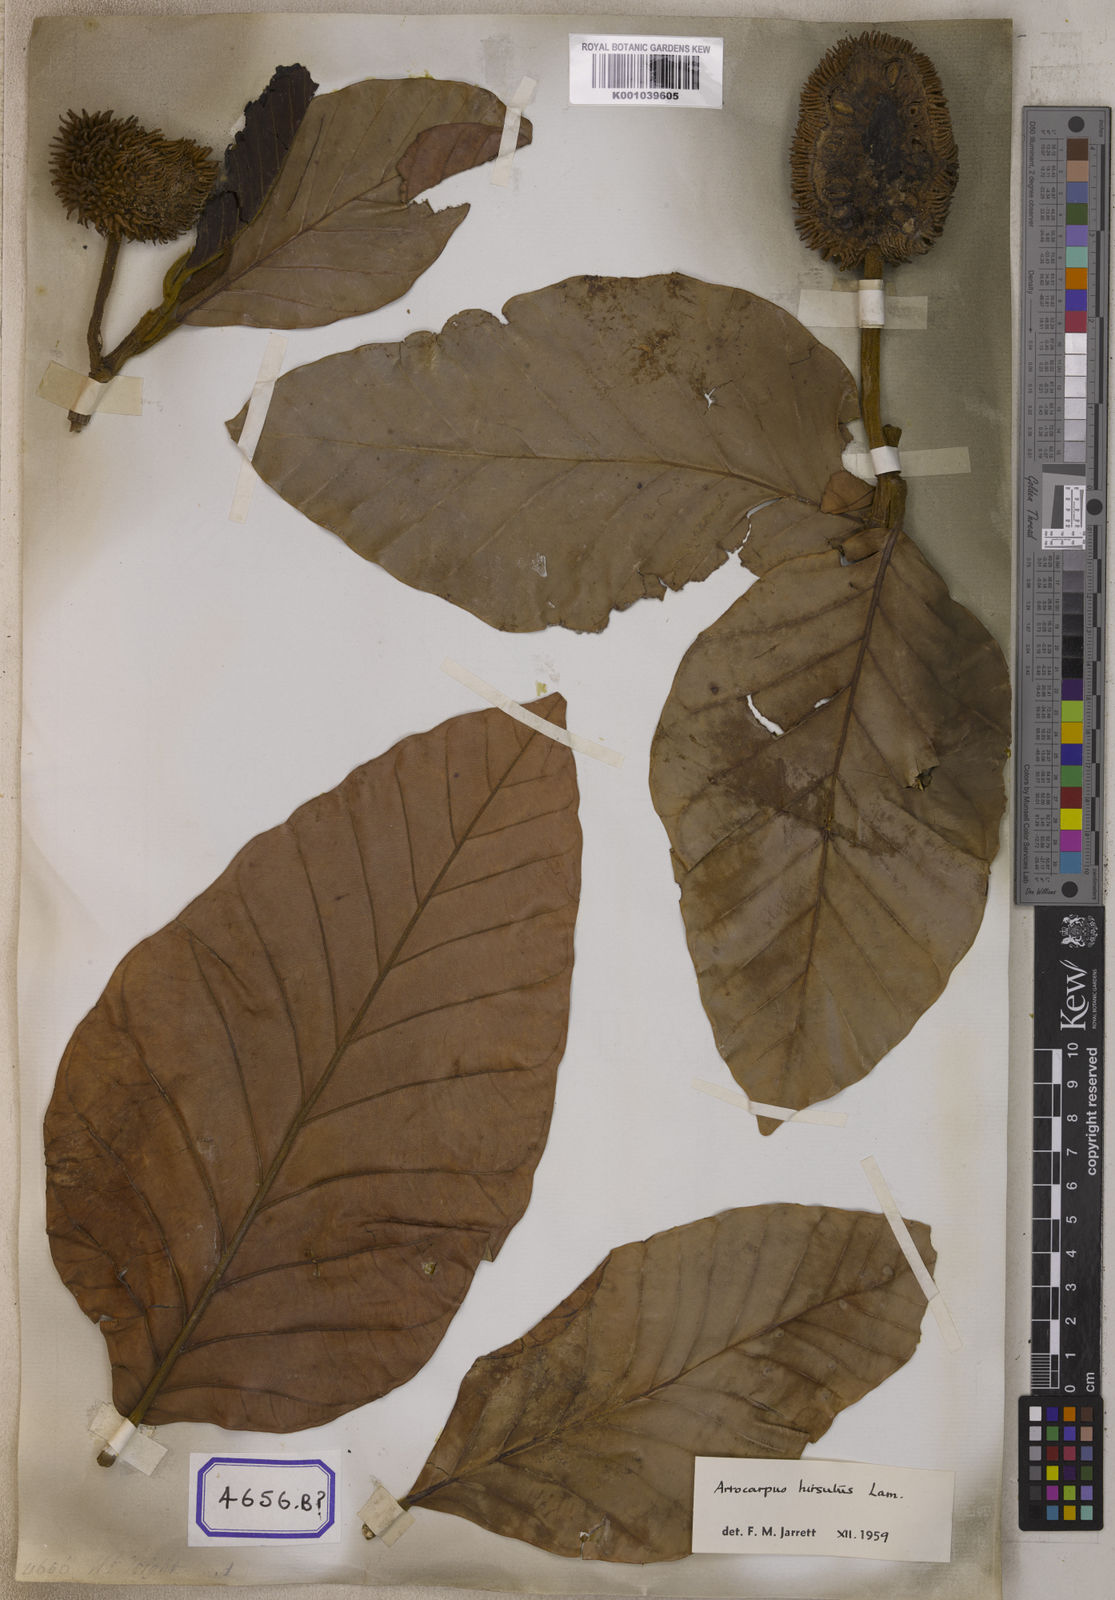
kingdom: Plantae
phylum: Tracheophyta
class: Magnoliopsida
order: Rosales
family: Moraceae
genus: Artocarpus
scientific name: Artocarpus hirsutus
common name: Hairy bread-fruit tree
